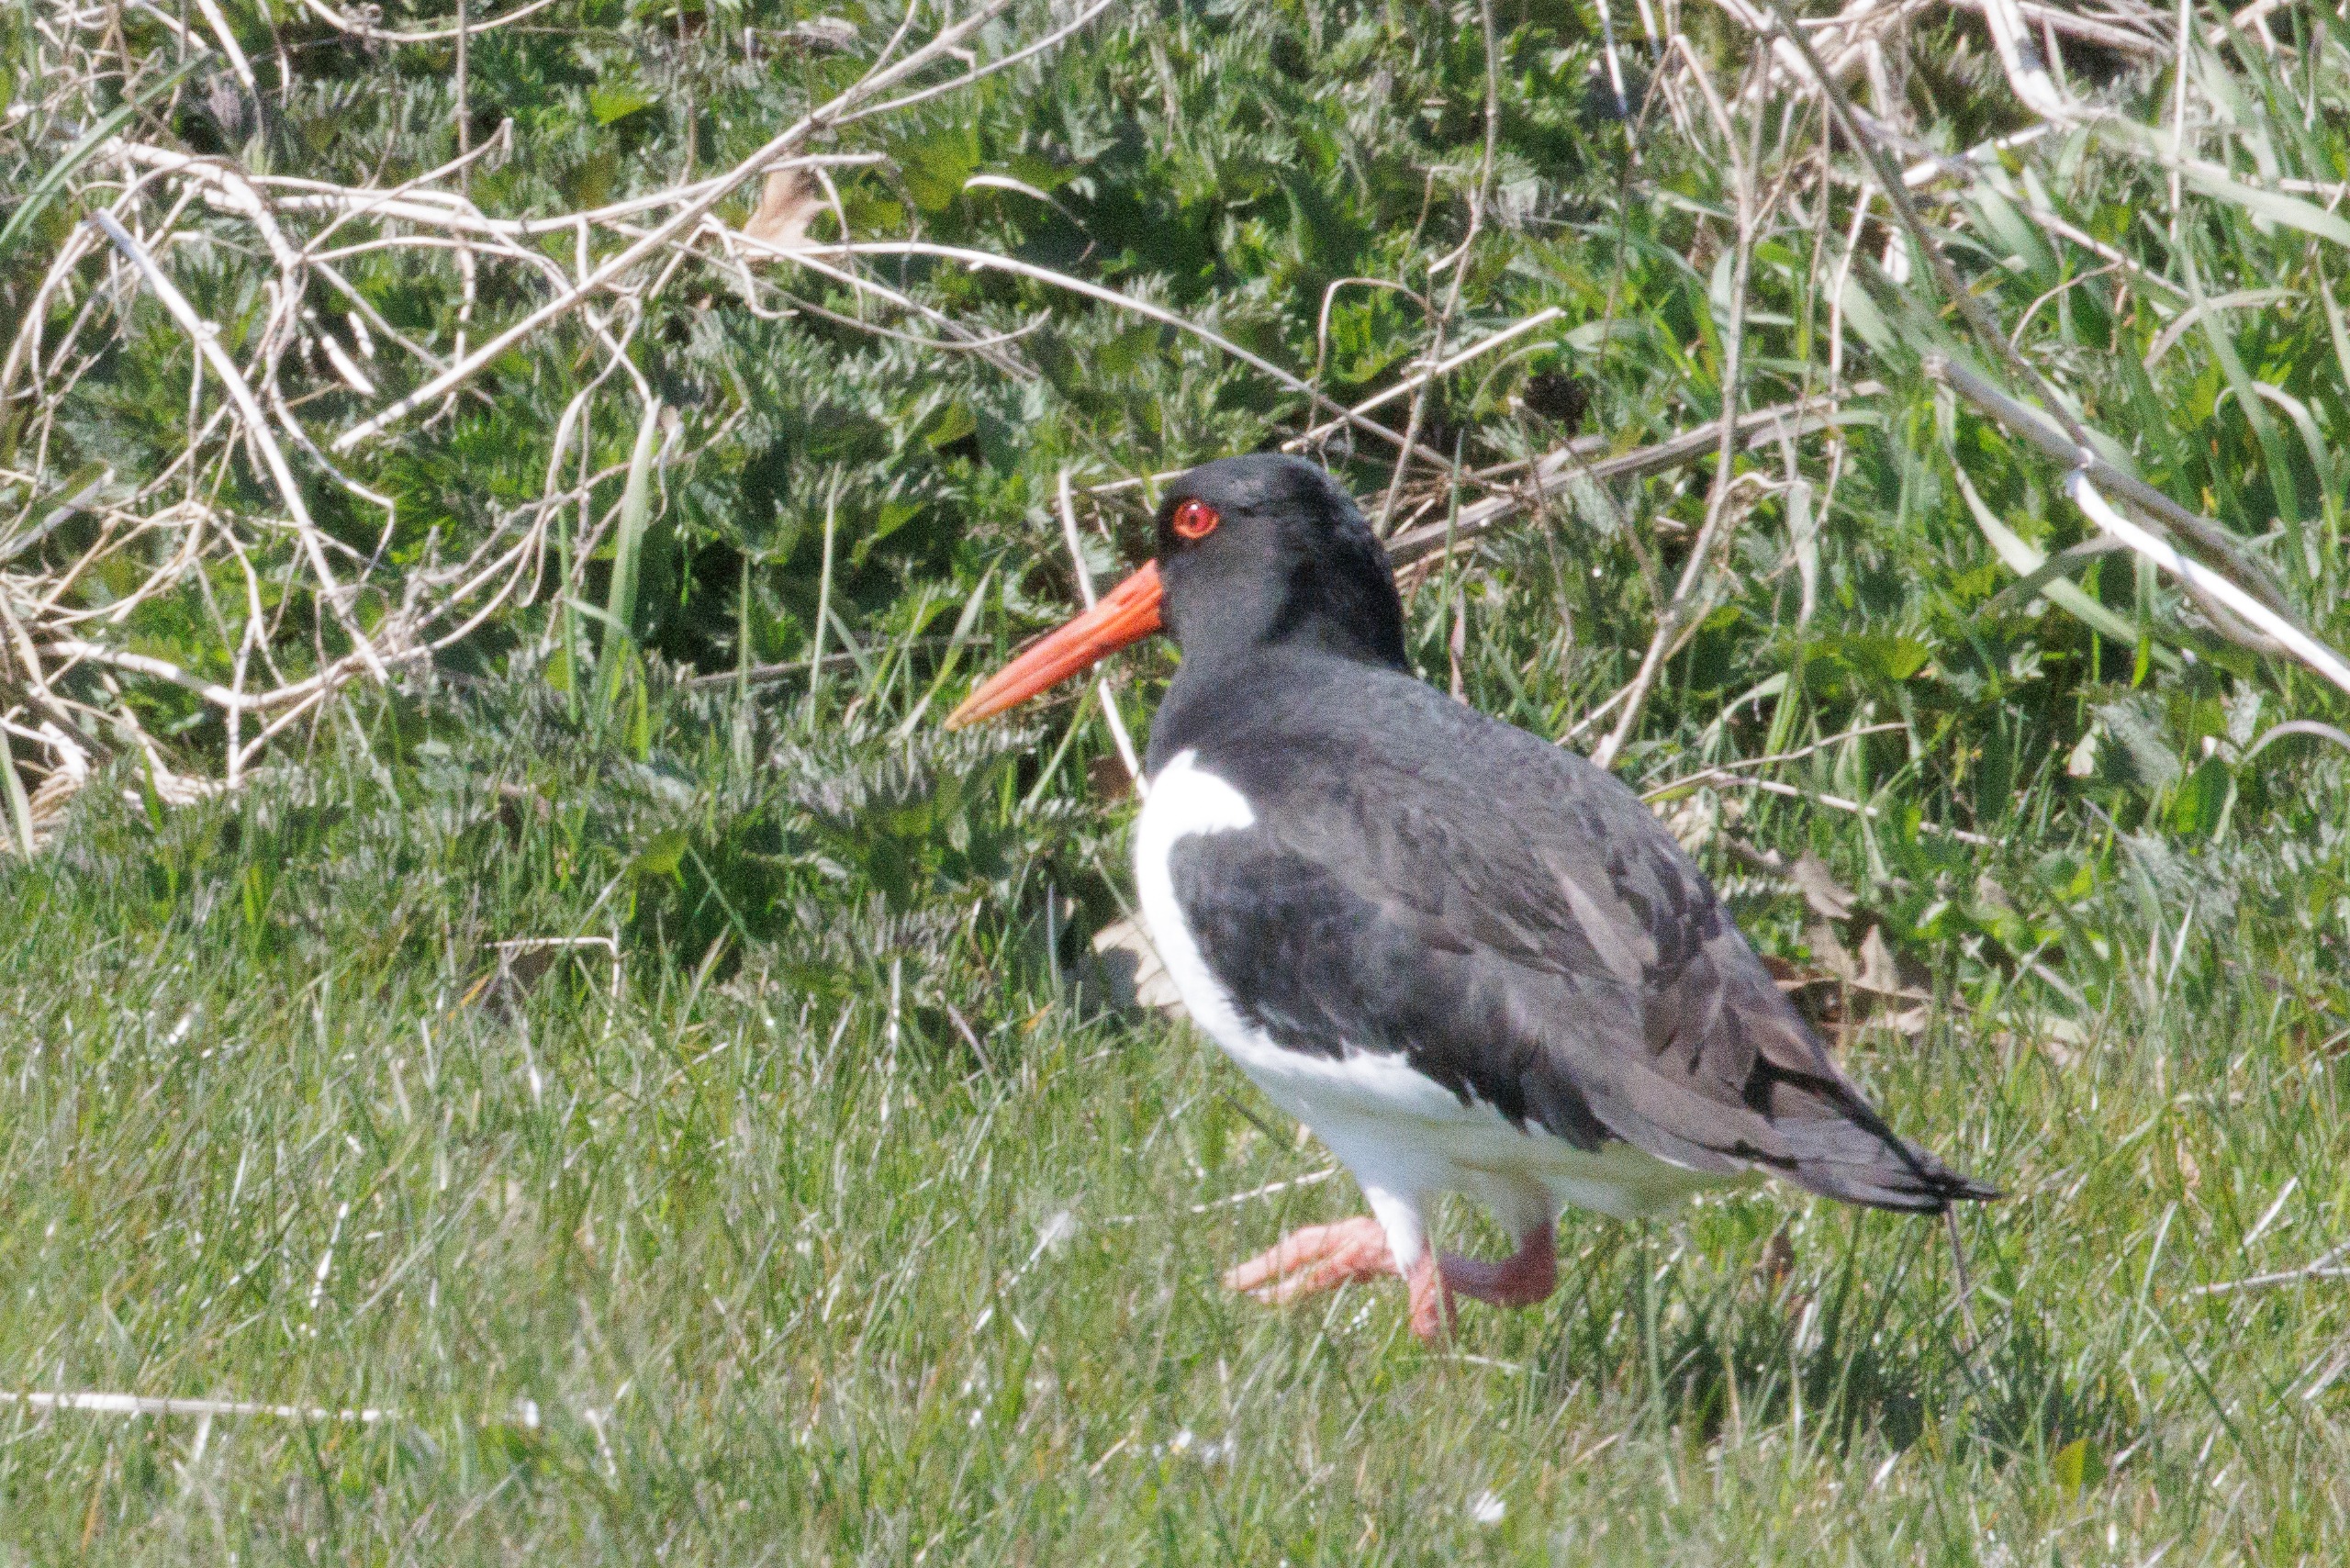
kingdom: Animalia
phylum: Chordata
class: Aves
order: Charadriiformes
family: Haematopodidae
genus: Haematopus
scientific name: Haematopus ostralegus
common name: Strandskade
